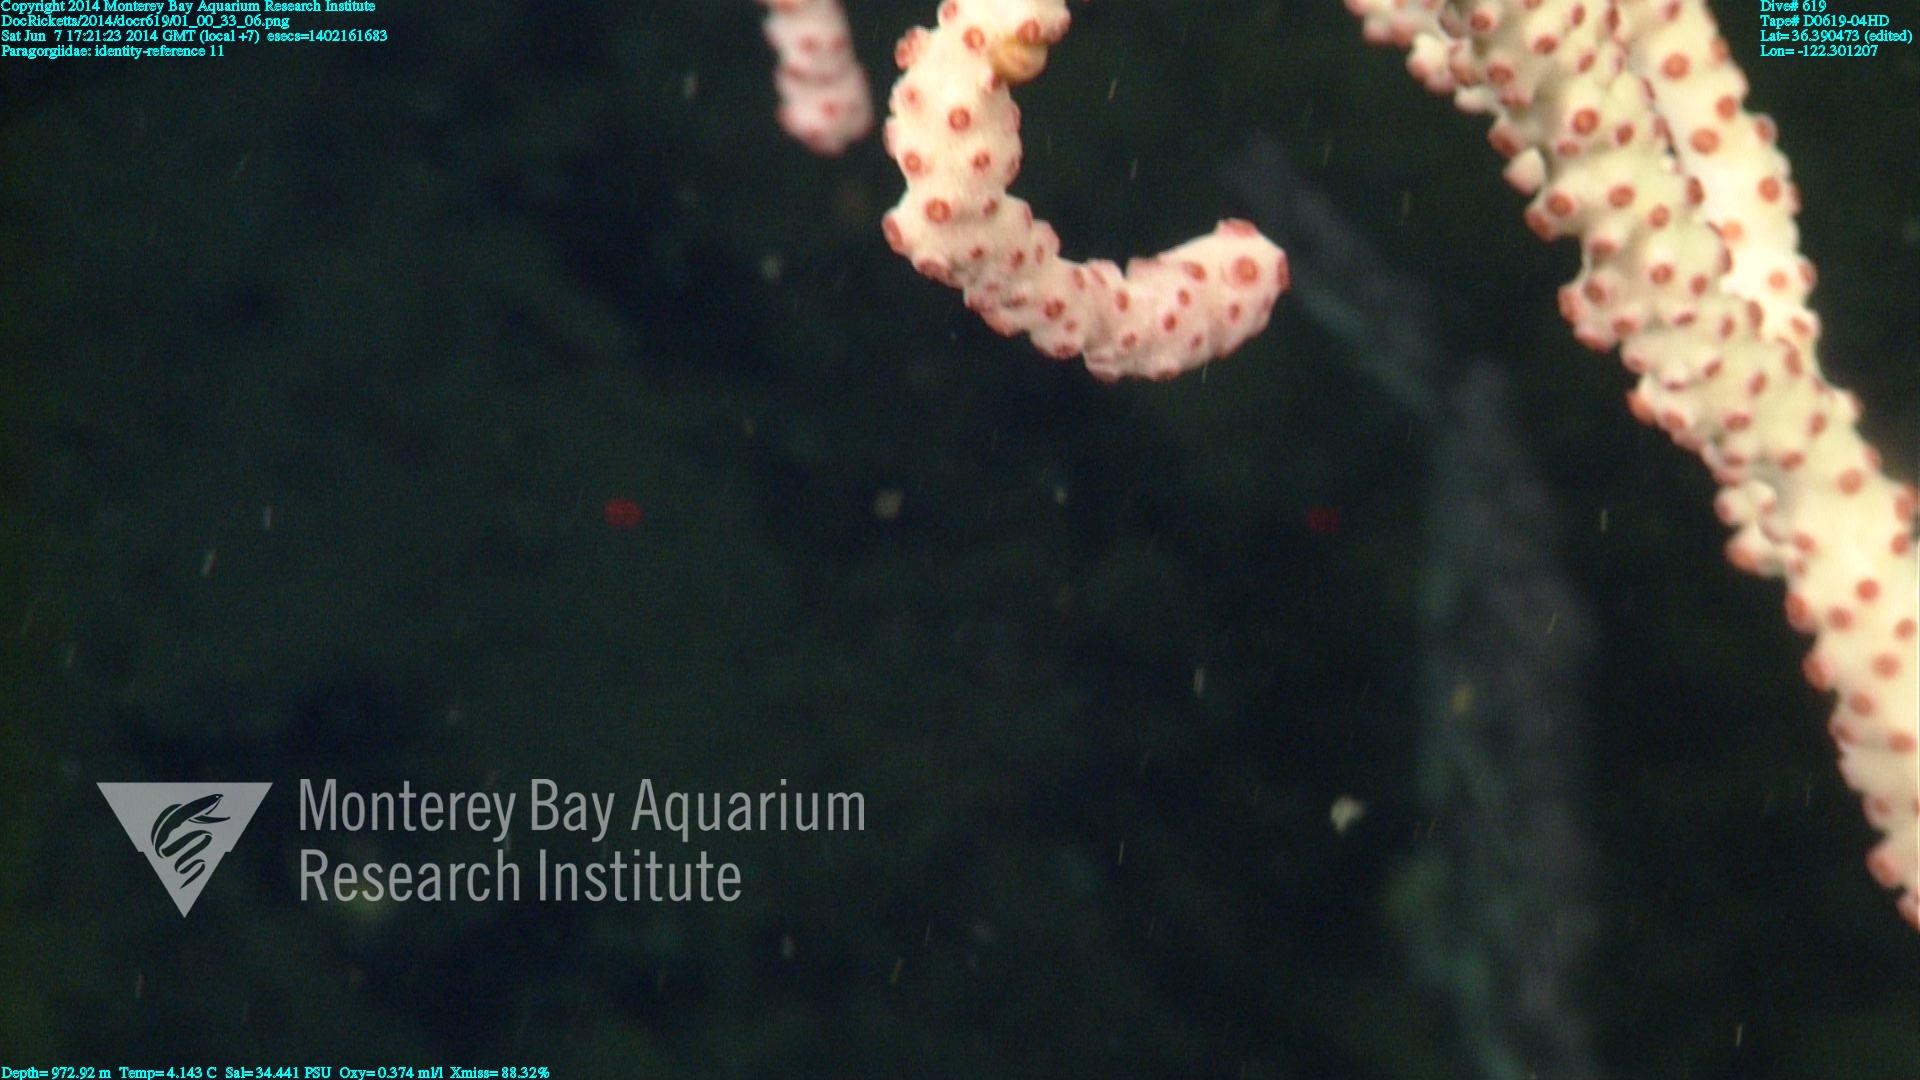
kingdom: Animalia
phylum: Cnidaria
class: Anthozoa
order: Scleralcyonacea
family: Coralliidae
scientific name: Coralliidae
